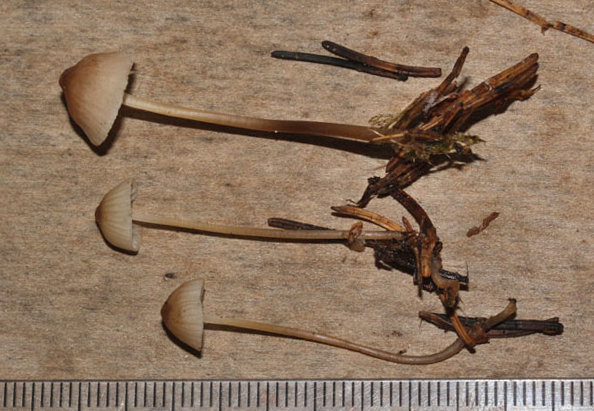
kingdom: Fungi
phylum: Basidiomycota
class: Agaricomycetes
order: Agaricales
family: Mycenaceae
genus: Mycena
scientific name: Mycena cinerella
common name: mel-huesvamp
